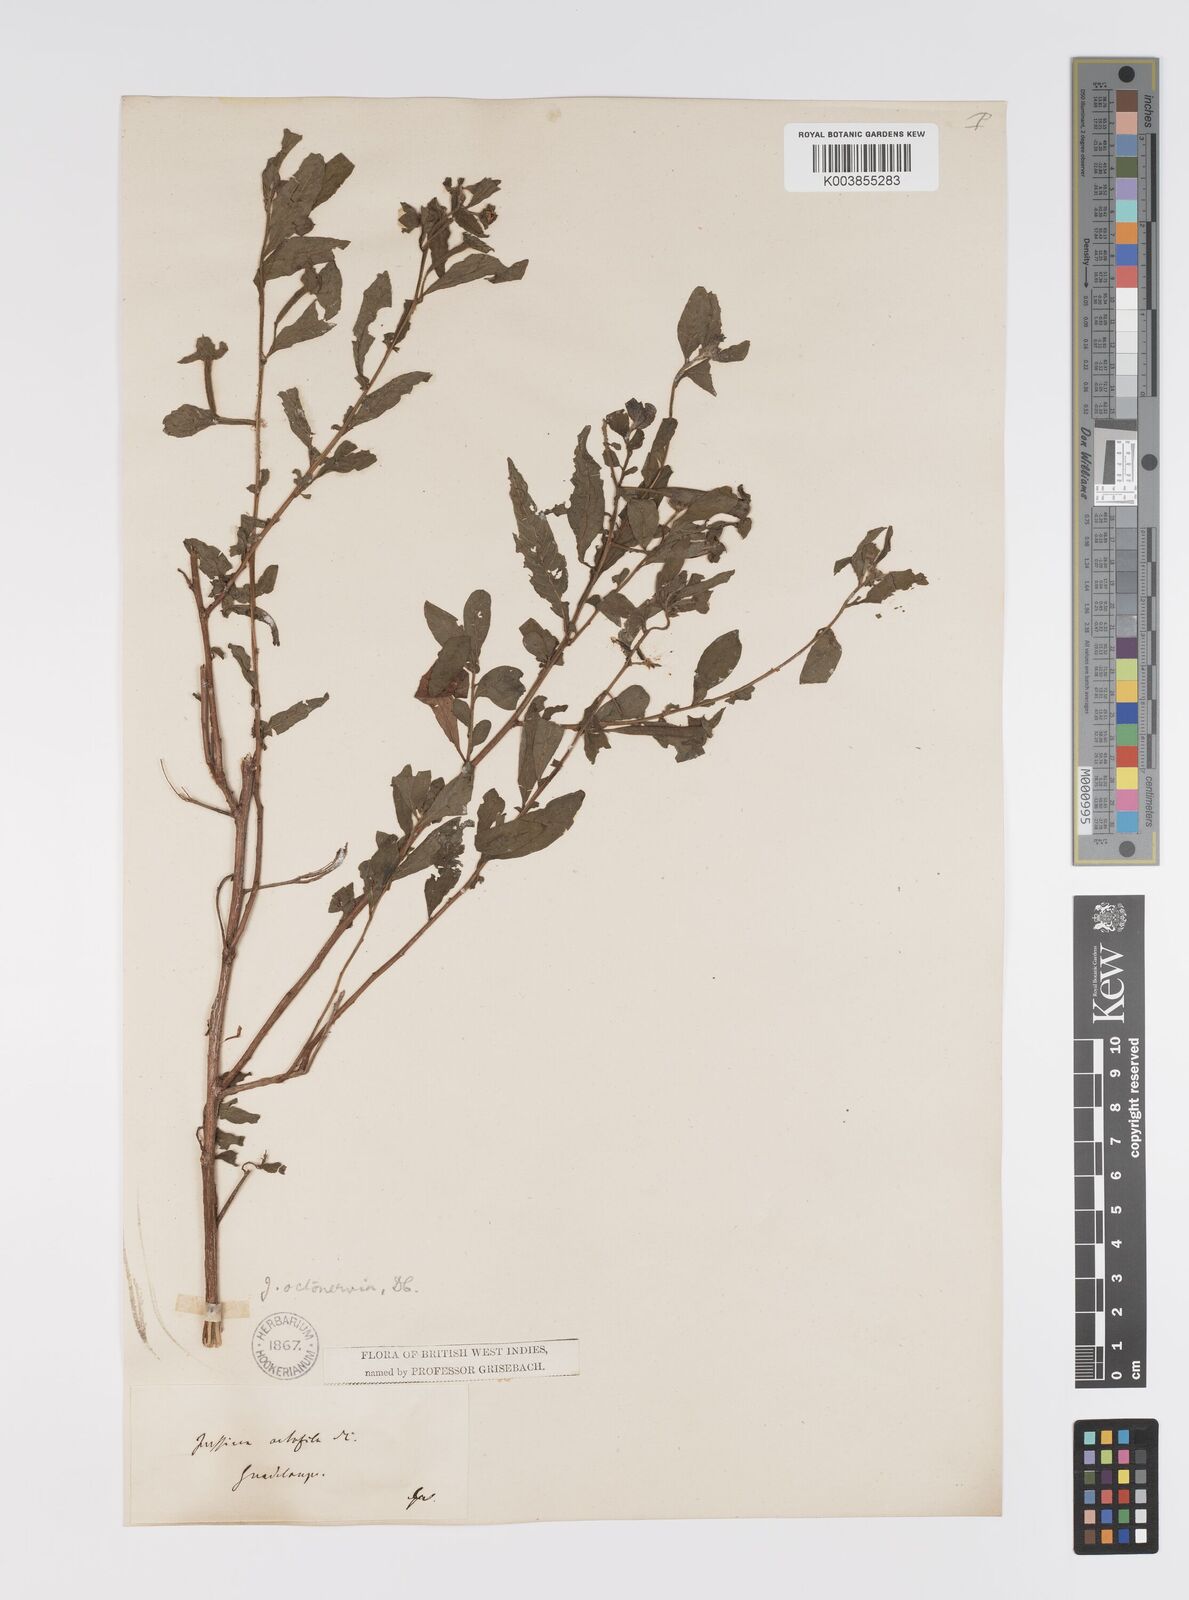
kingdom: Plantae
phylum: Tracheophyta
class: Magnoliopsida
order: Myrtales
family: Onagraceae
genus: Ludwigia
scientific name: Ludwigia octovalvis
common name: Water-primrose
